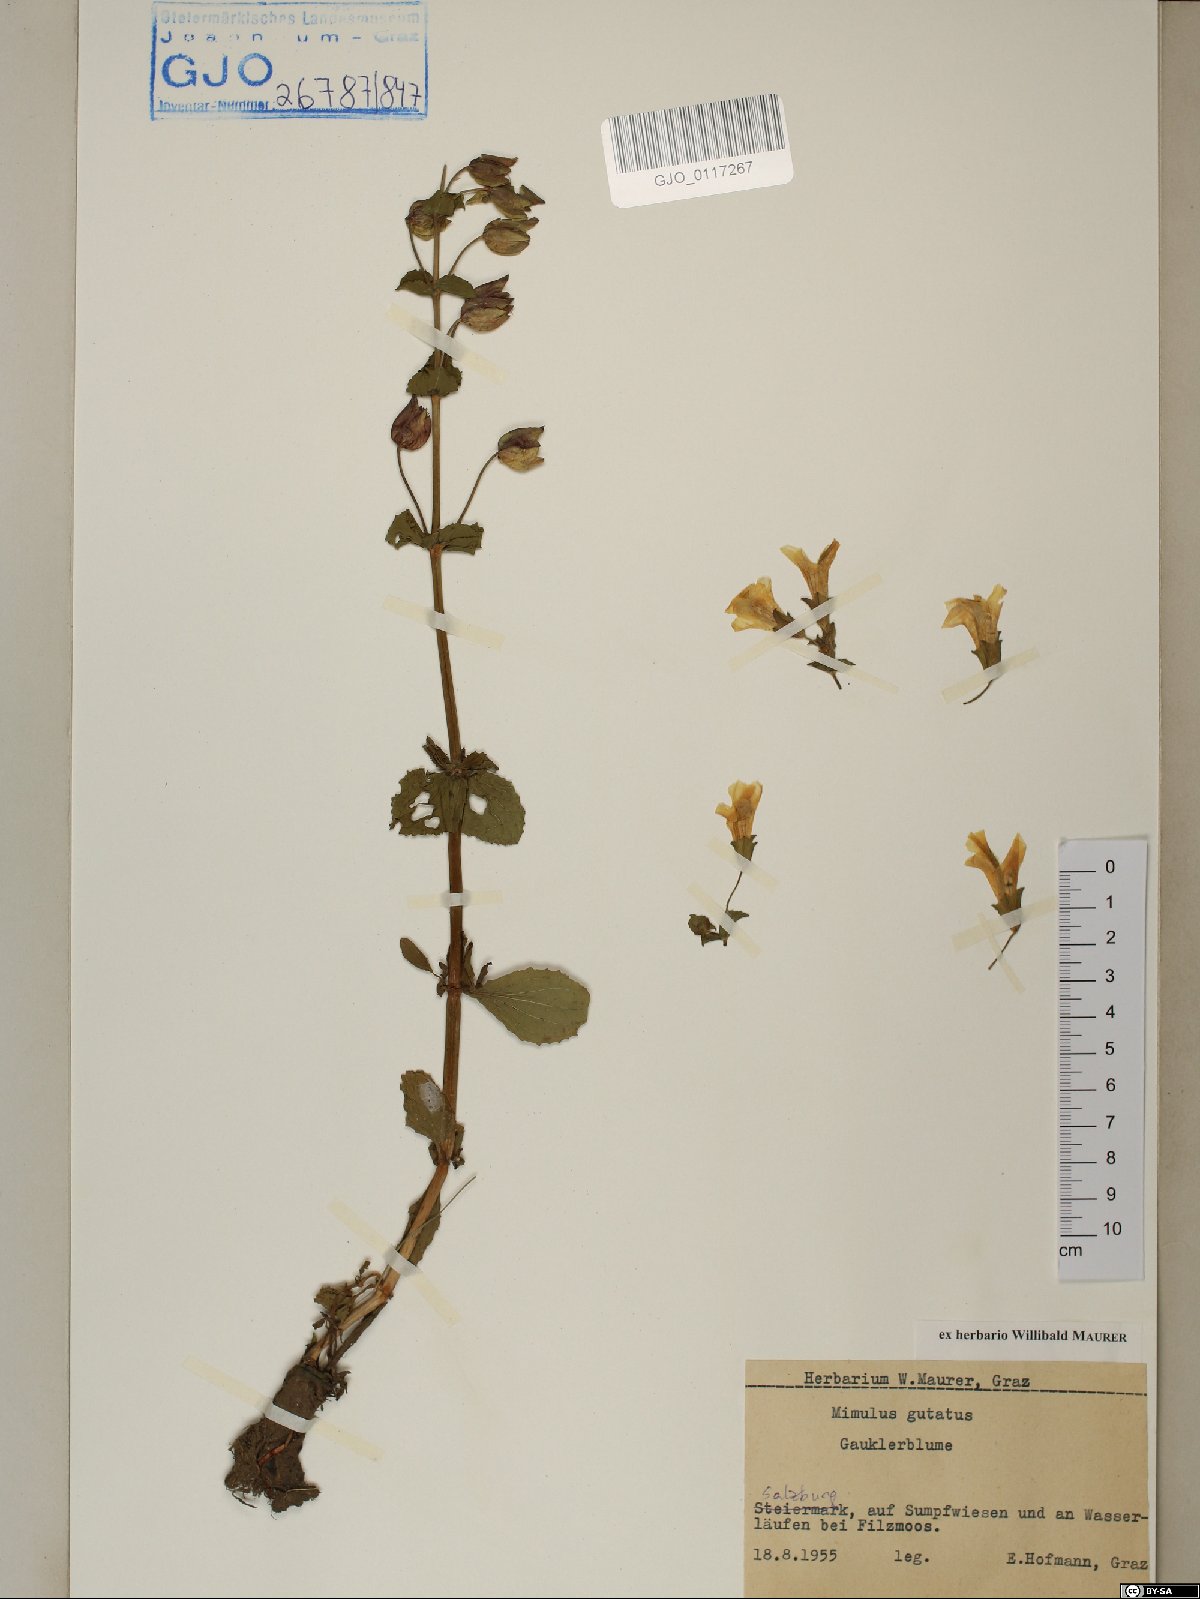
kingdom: Plantae
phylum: Tracheophyta
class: Magnoliopsida
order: Lamiales
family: Phrymaceae
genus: Erythranthe
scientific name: Erythranthe guttata
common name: Monkeyflower
